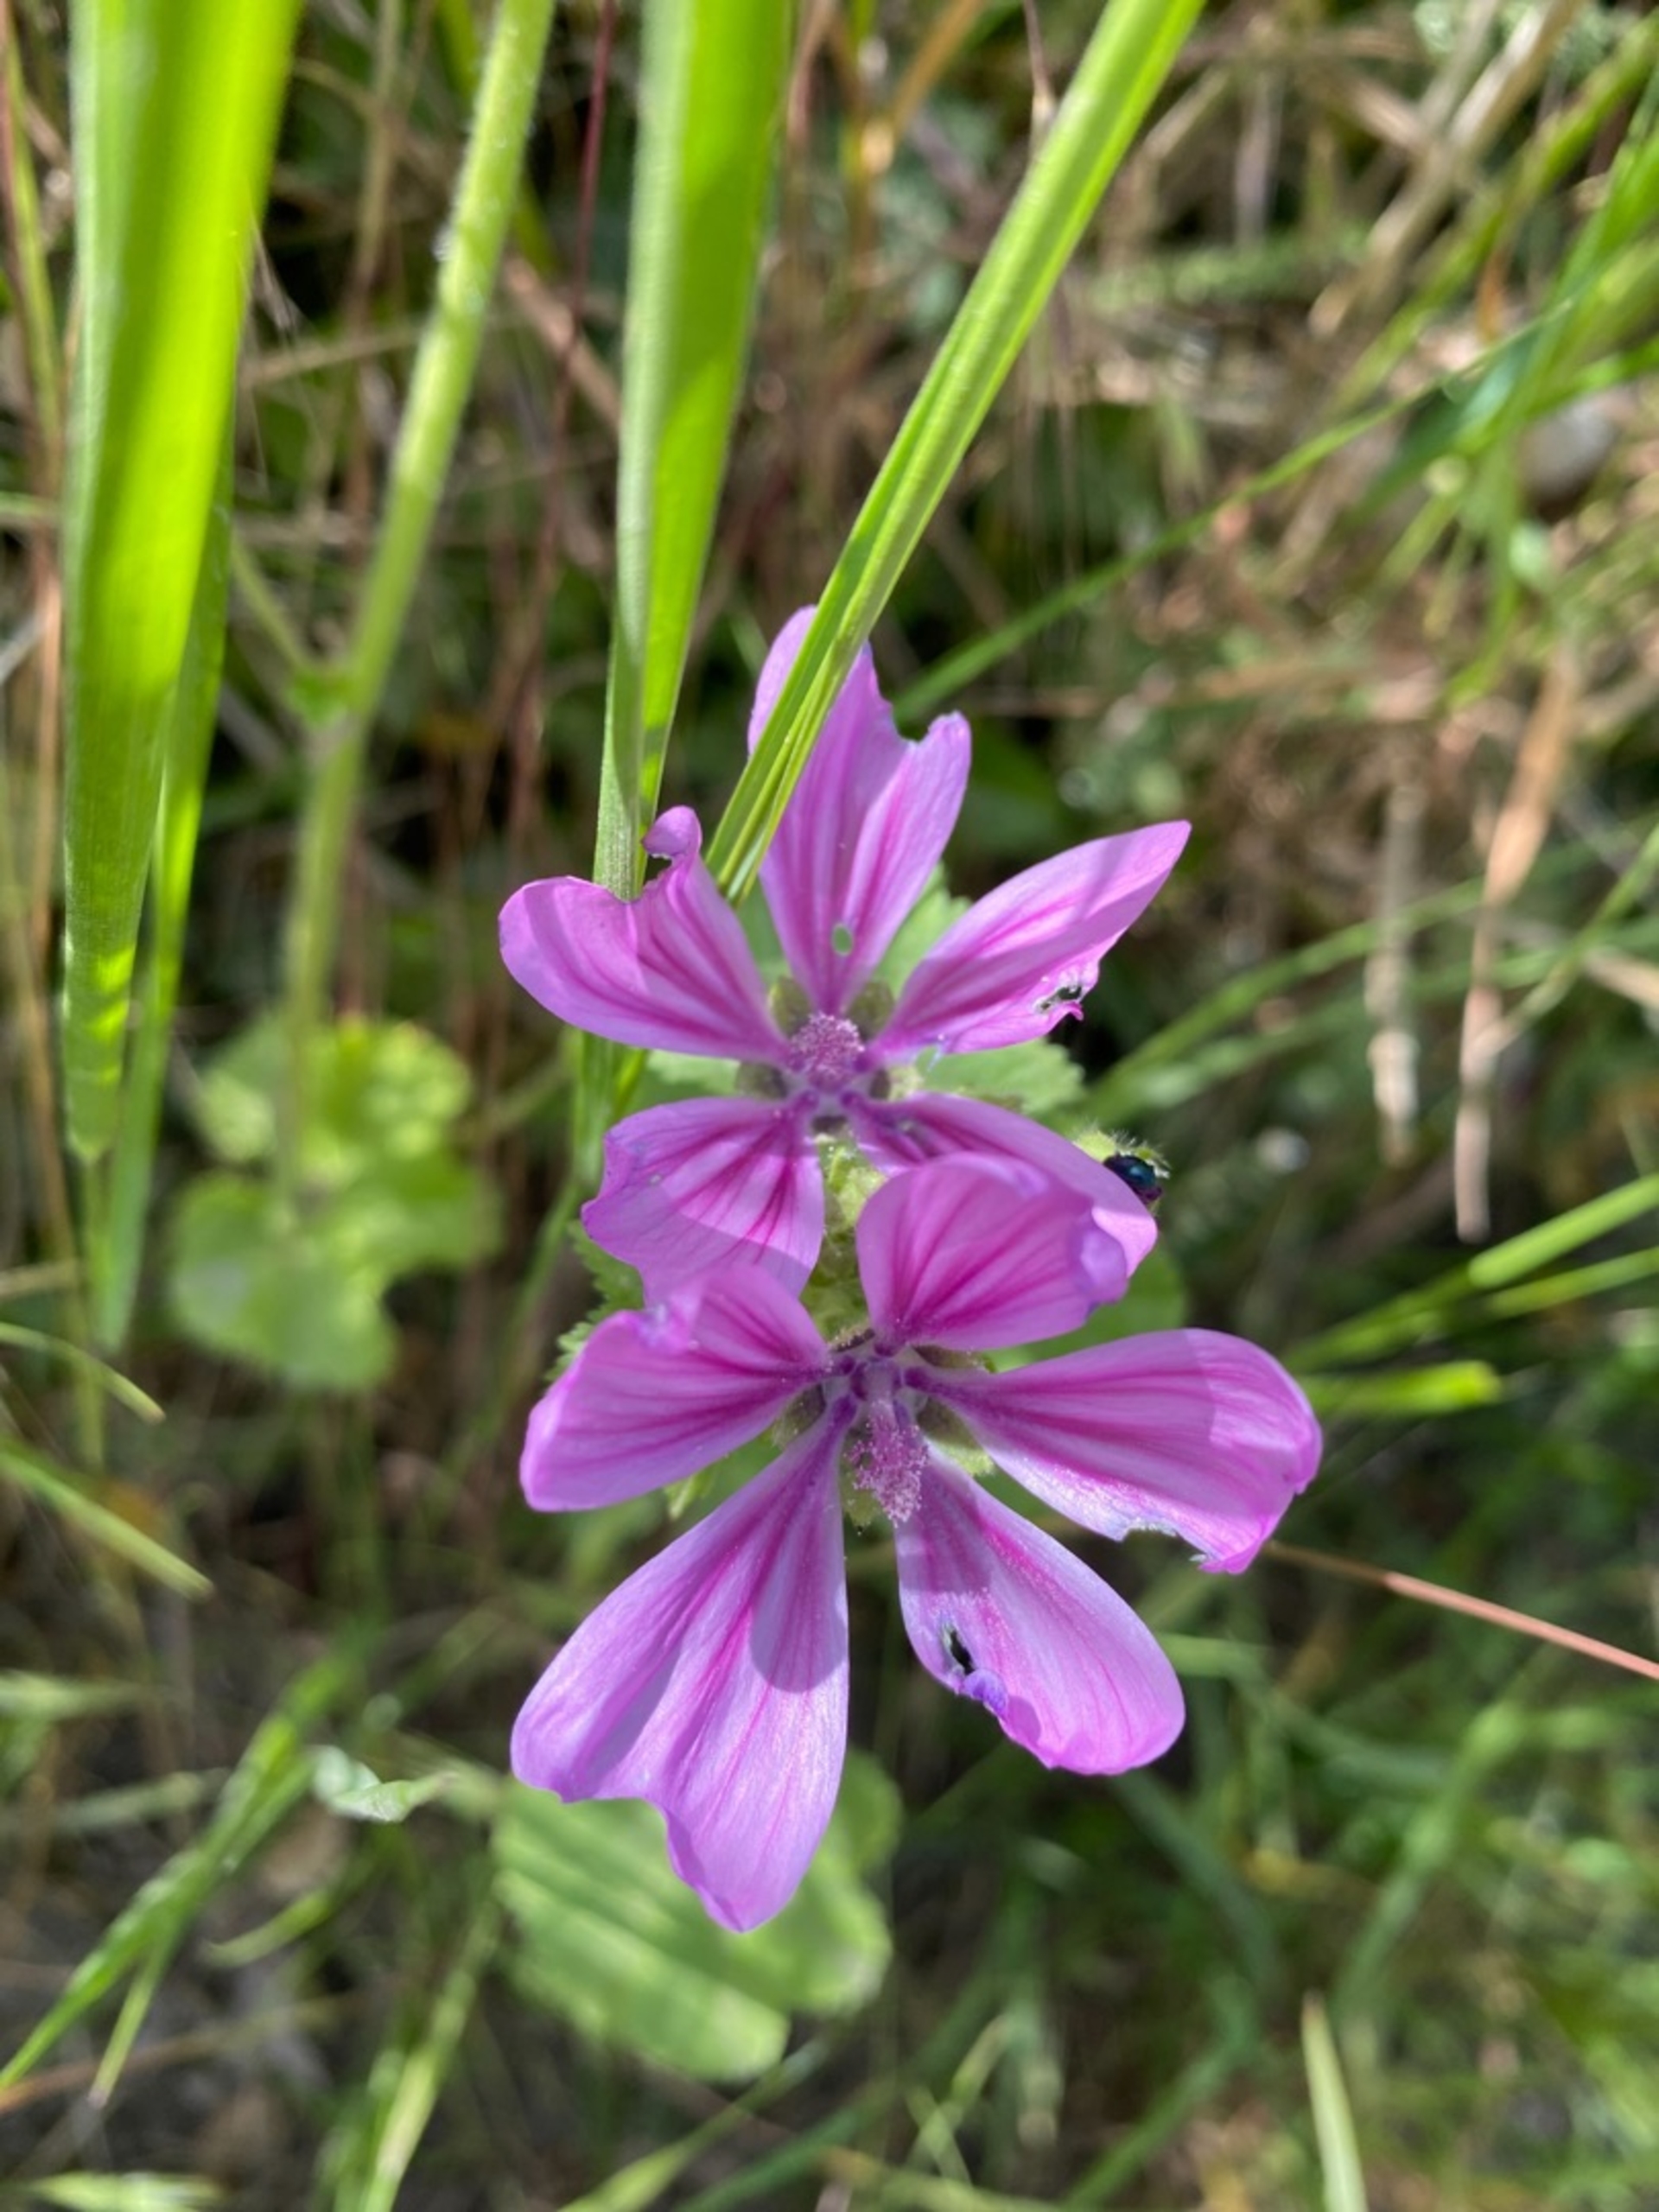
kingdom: Plantae
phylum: Tracheophyta
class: Magnoliopsida
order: Malvales
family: Malvaceae
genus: Malva
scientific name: Malva sylvestris
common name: Almindelig katost
